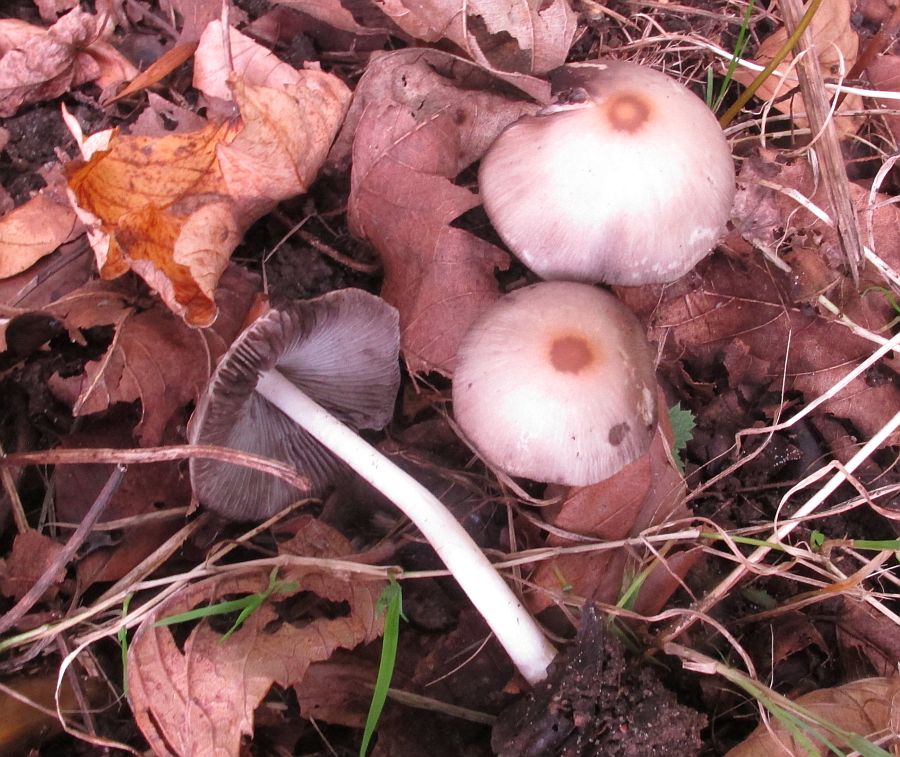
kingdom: Fungi
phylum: Basidiomycota
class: Agaricomycetes
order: Agaricales
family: Psathyrellaceae
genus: Psathyrella
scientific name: Psathyrella fusca
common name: gråbladet mørkhat
